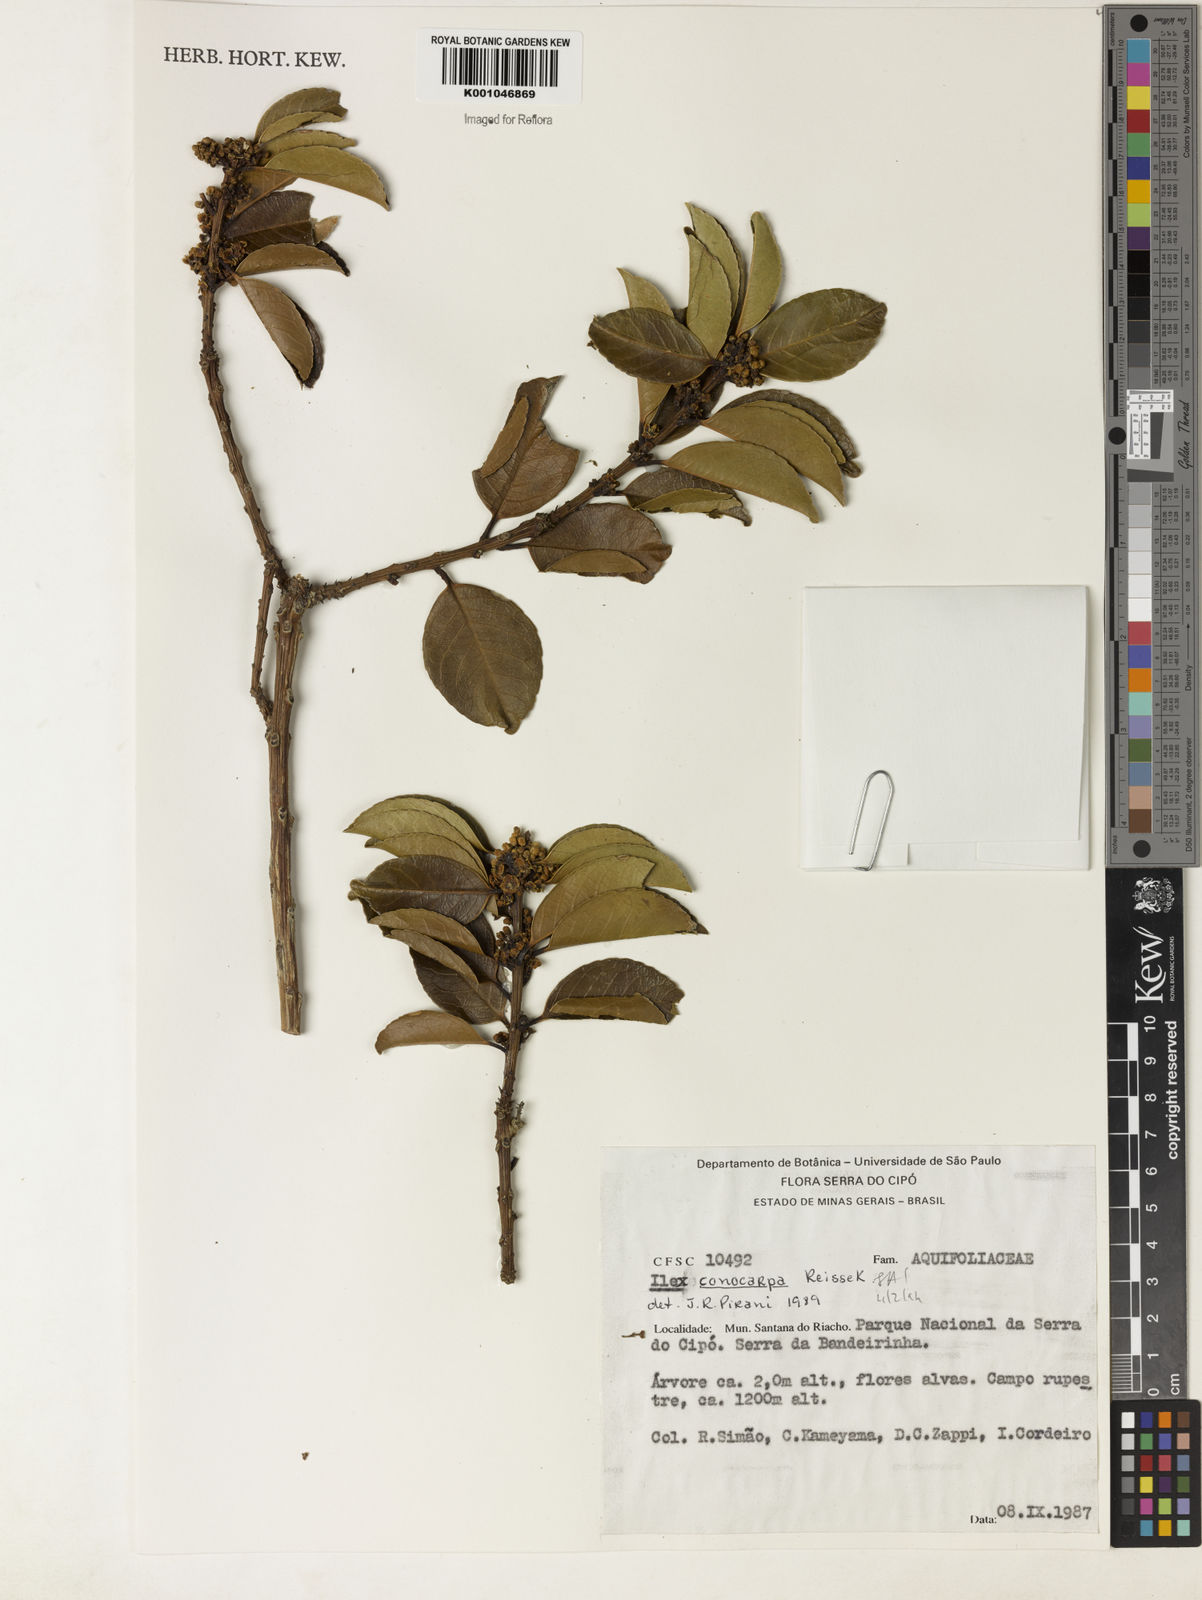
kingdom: Plantae
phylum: Tracheophyta
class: Magnoliopsida
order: Aquifoliales
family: Aquifoliaceae
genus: Ilex
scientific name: Ilex conocarpa
